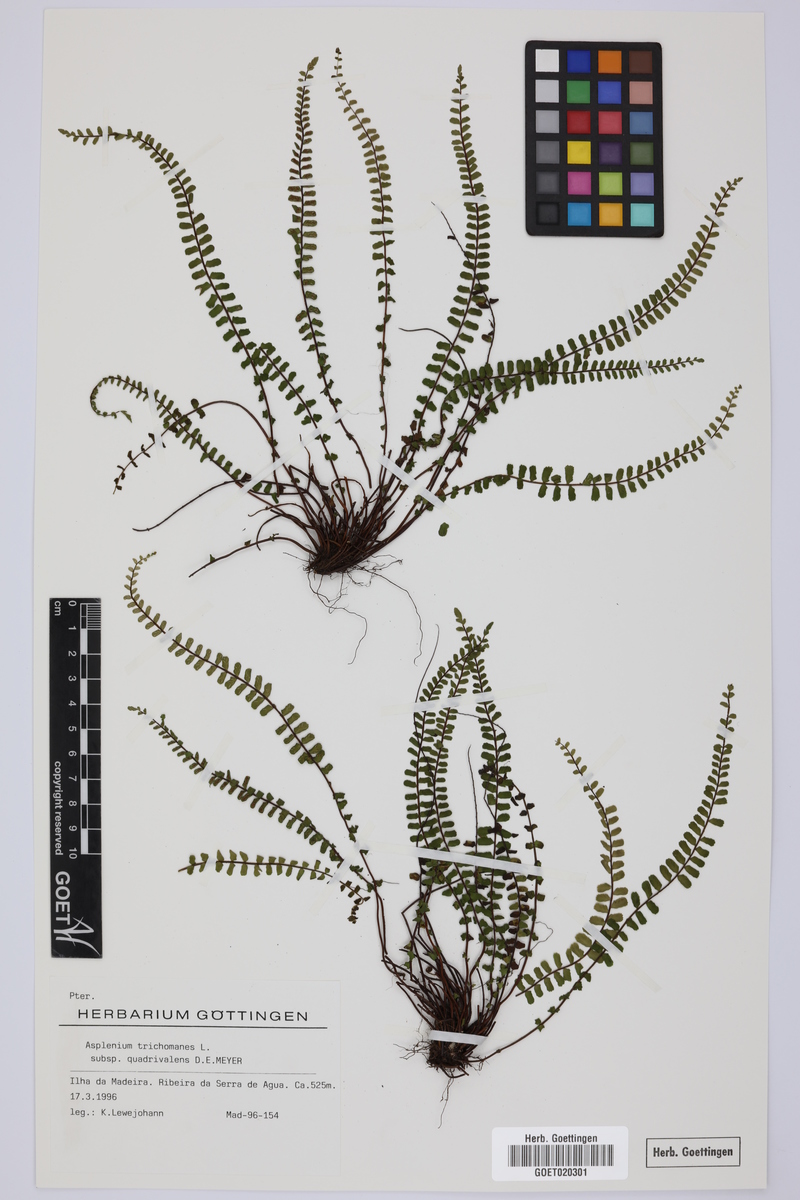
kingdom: Plantae
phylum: Tracheophyta
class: Polypodiopsida
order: Polypodiales
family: Aspleniaceae
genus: Asplenium
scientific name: Asplenium quadrivalens
